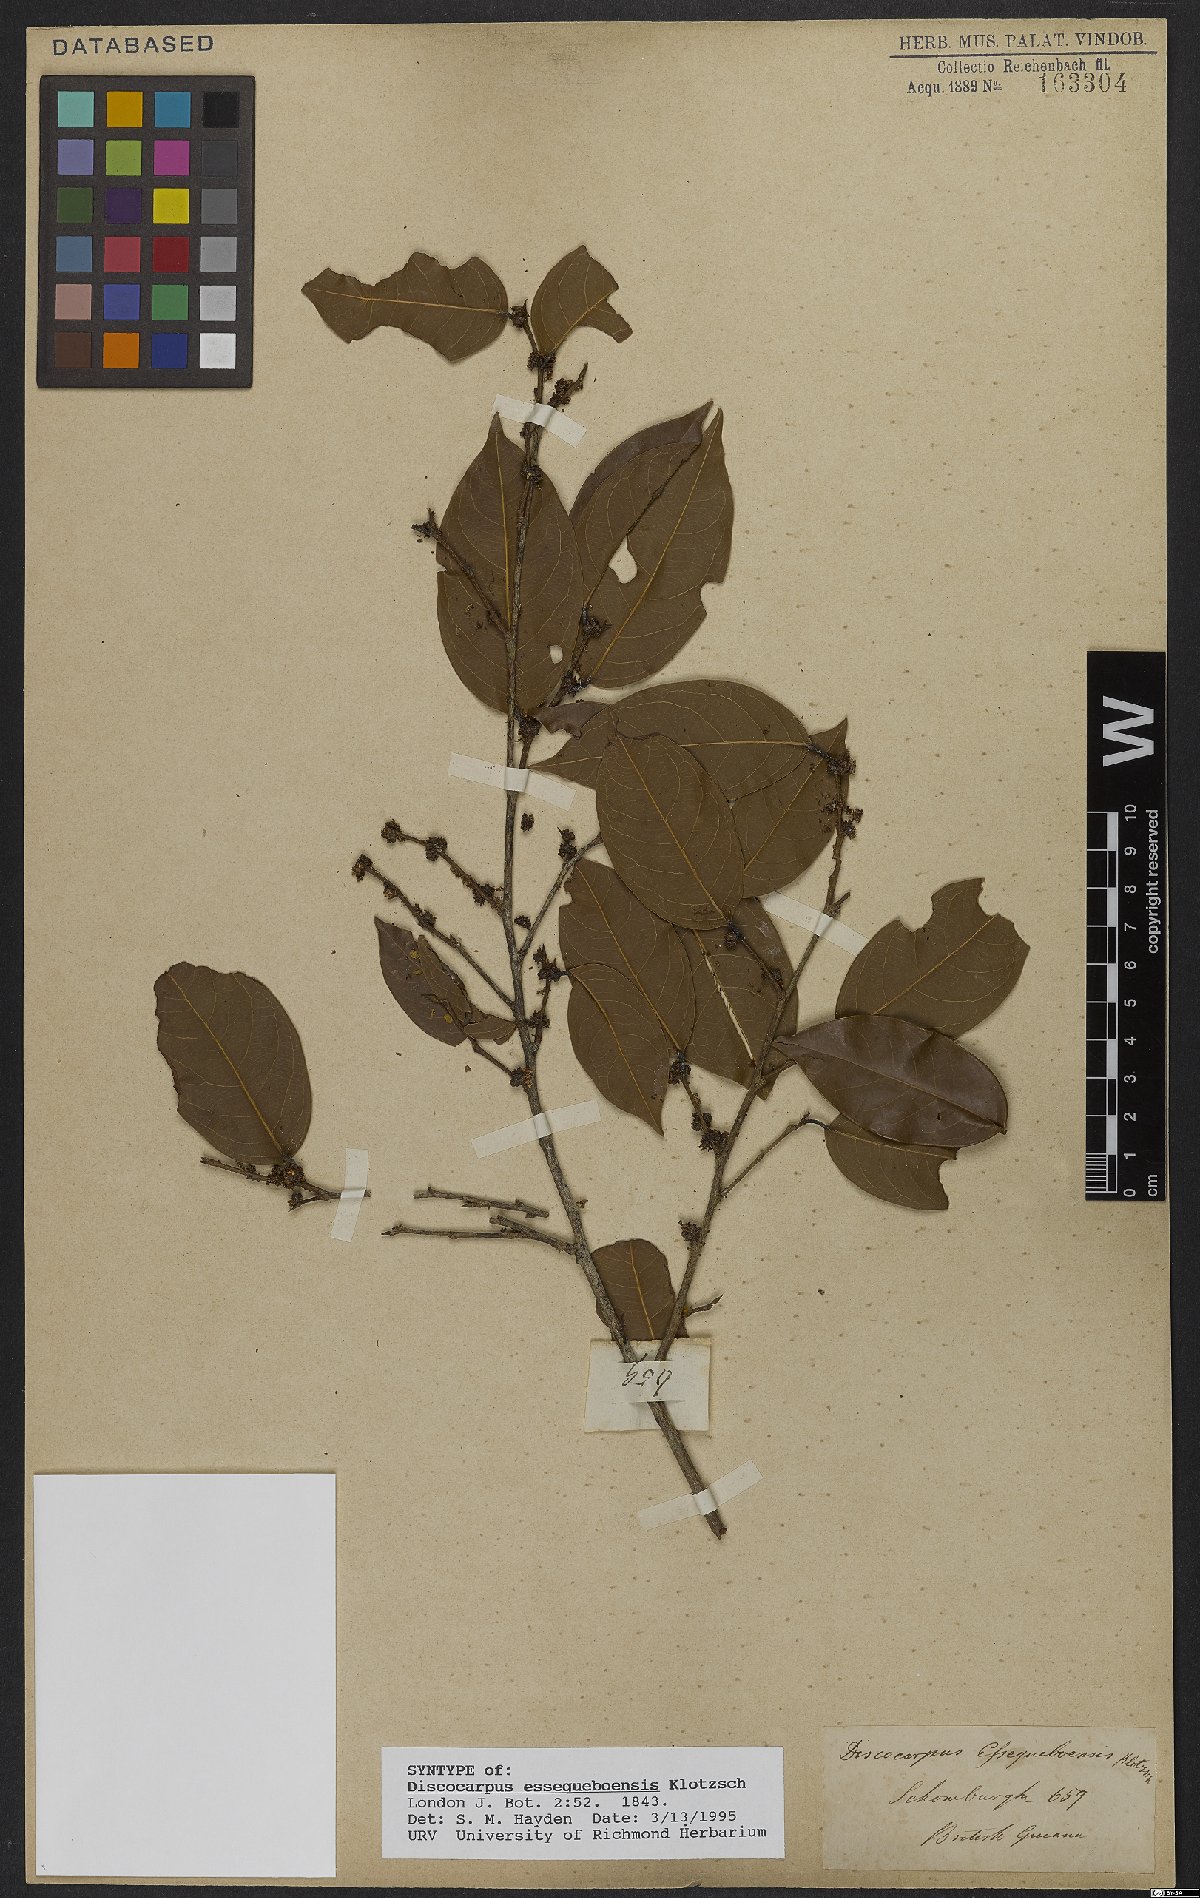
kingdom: Plantae
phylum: Tracheophyta
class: Magnoliopsida
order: Malpighiales
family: Phyllanthaceae
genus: Discocarpus
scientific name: Discocarpus essequeboensis
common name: Sqaure-wood
